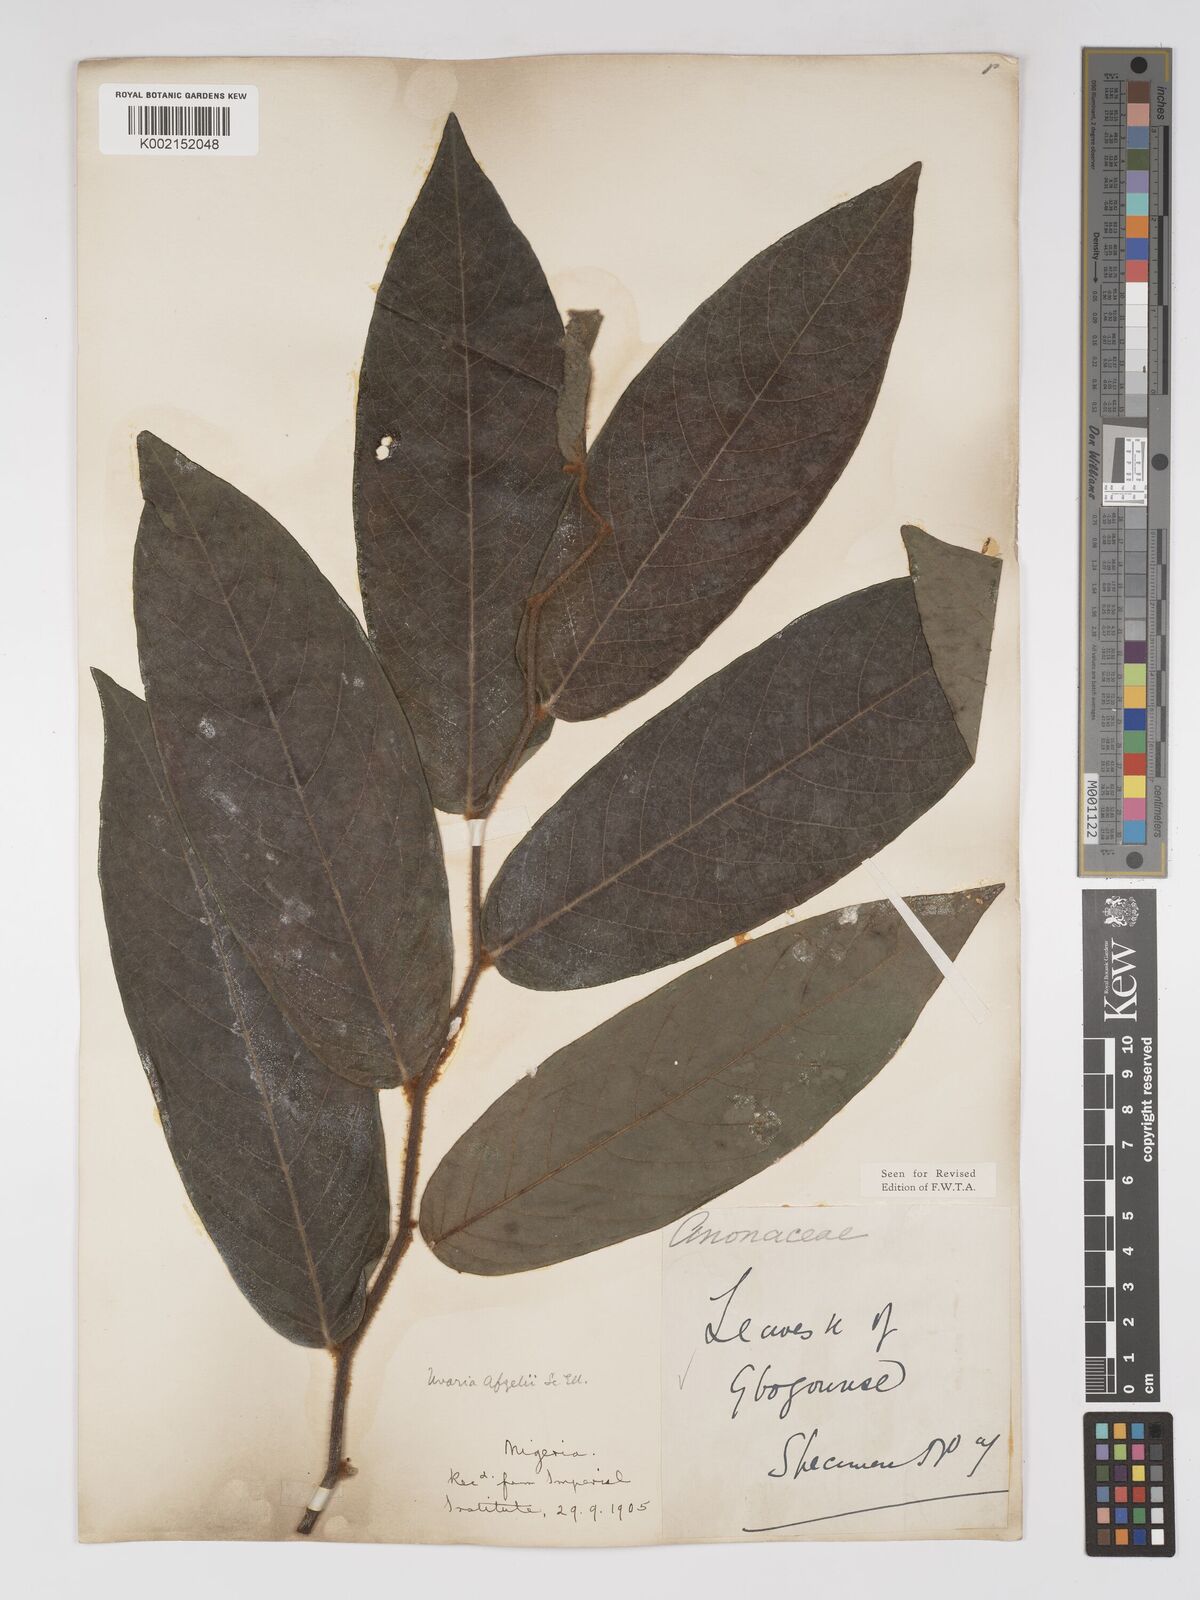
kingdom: Plantae
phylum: Tracheophyta
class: Magnoliopsida
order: Magnoliales
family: Annonaceae
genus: Uvaria
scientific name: Uvaria afzelii
